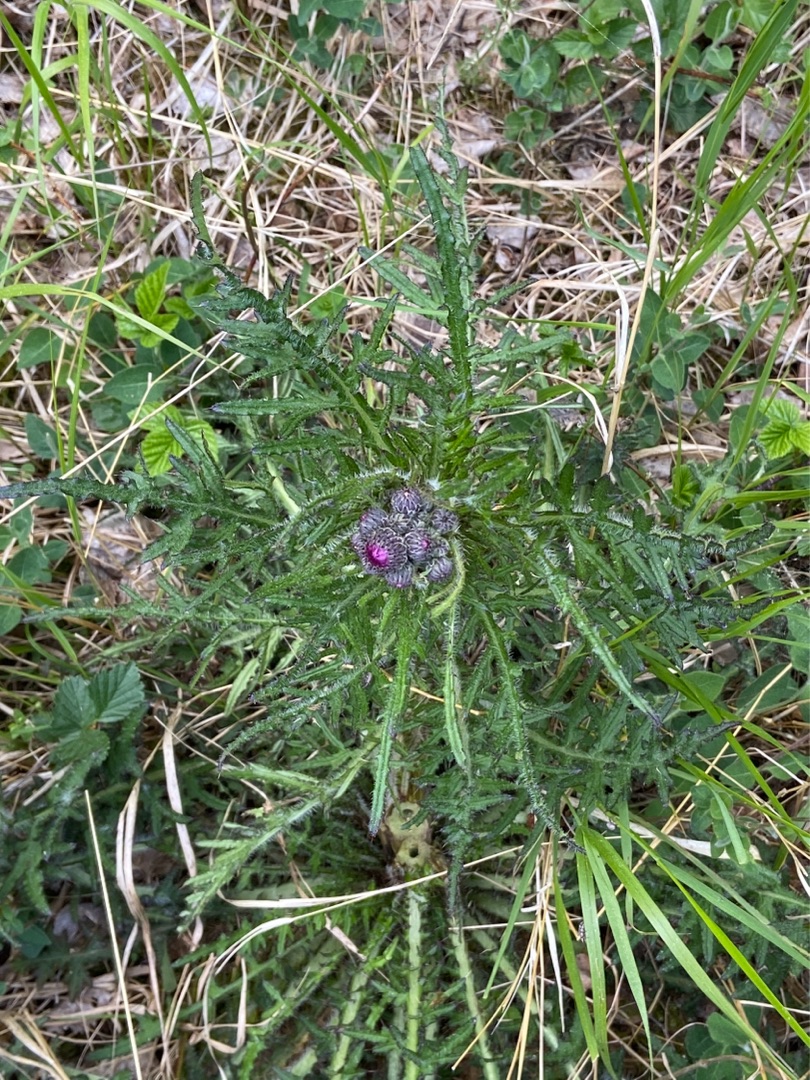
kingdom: Plantae
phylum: Tracheophyta
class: Magnoliopsida
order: Asterales
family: Asteraceae
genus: Cirsium
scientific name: Cirsium palustre
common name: Kær-tidsel
